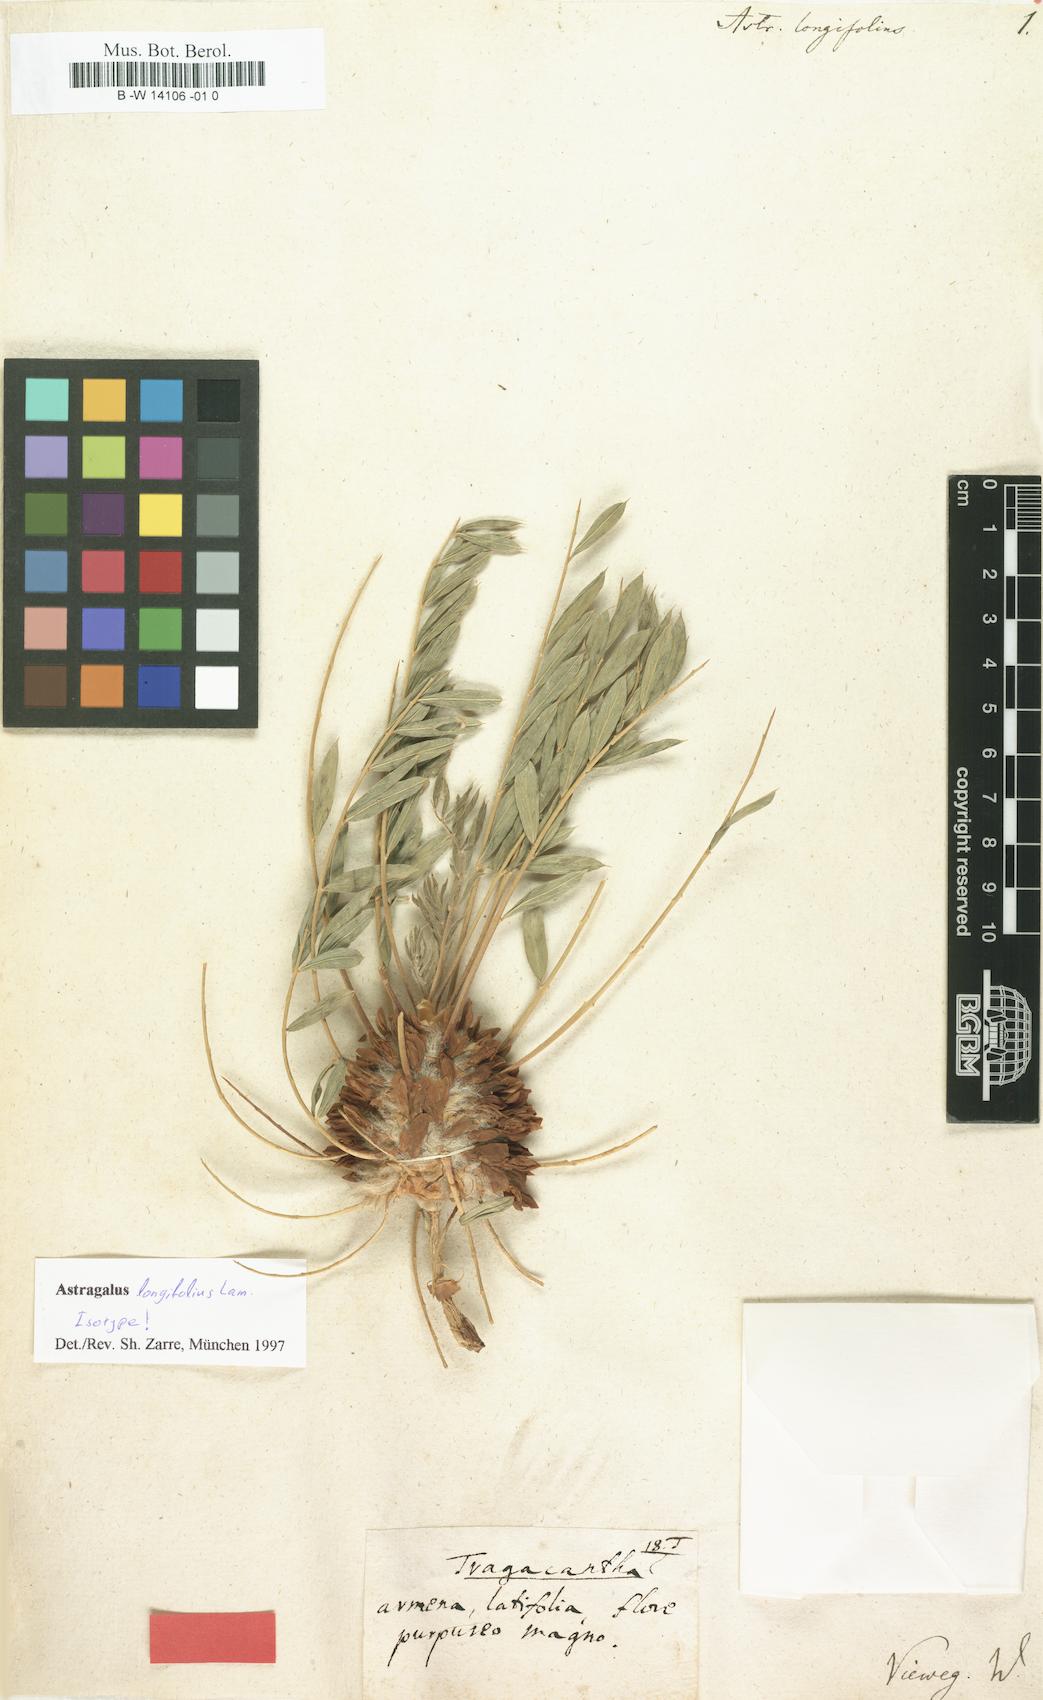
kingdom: Plantae
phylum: Tracheophyta
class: Magnoliopsida
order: Fabales
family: Fabaceae
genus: Astragalus
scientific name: Astragalus longifolius
